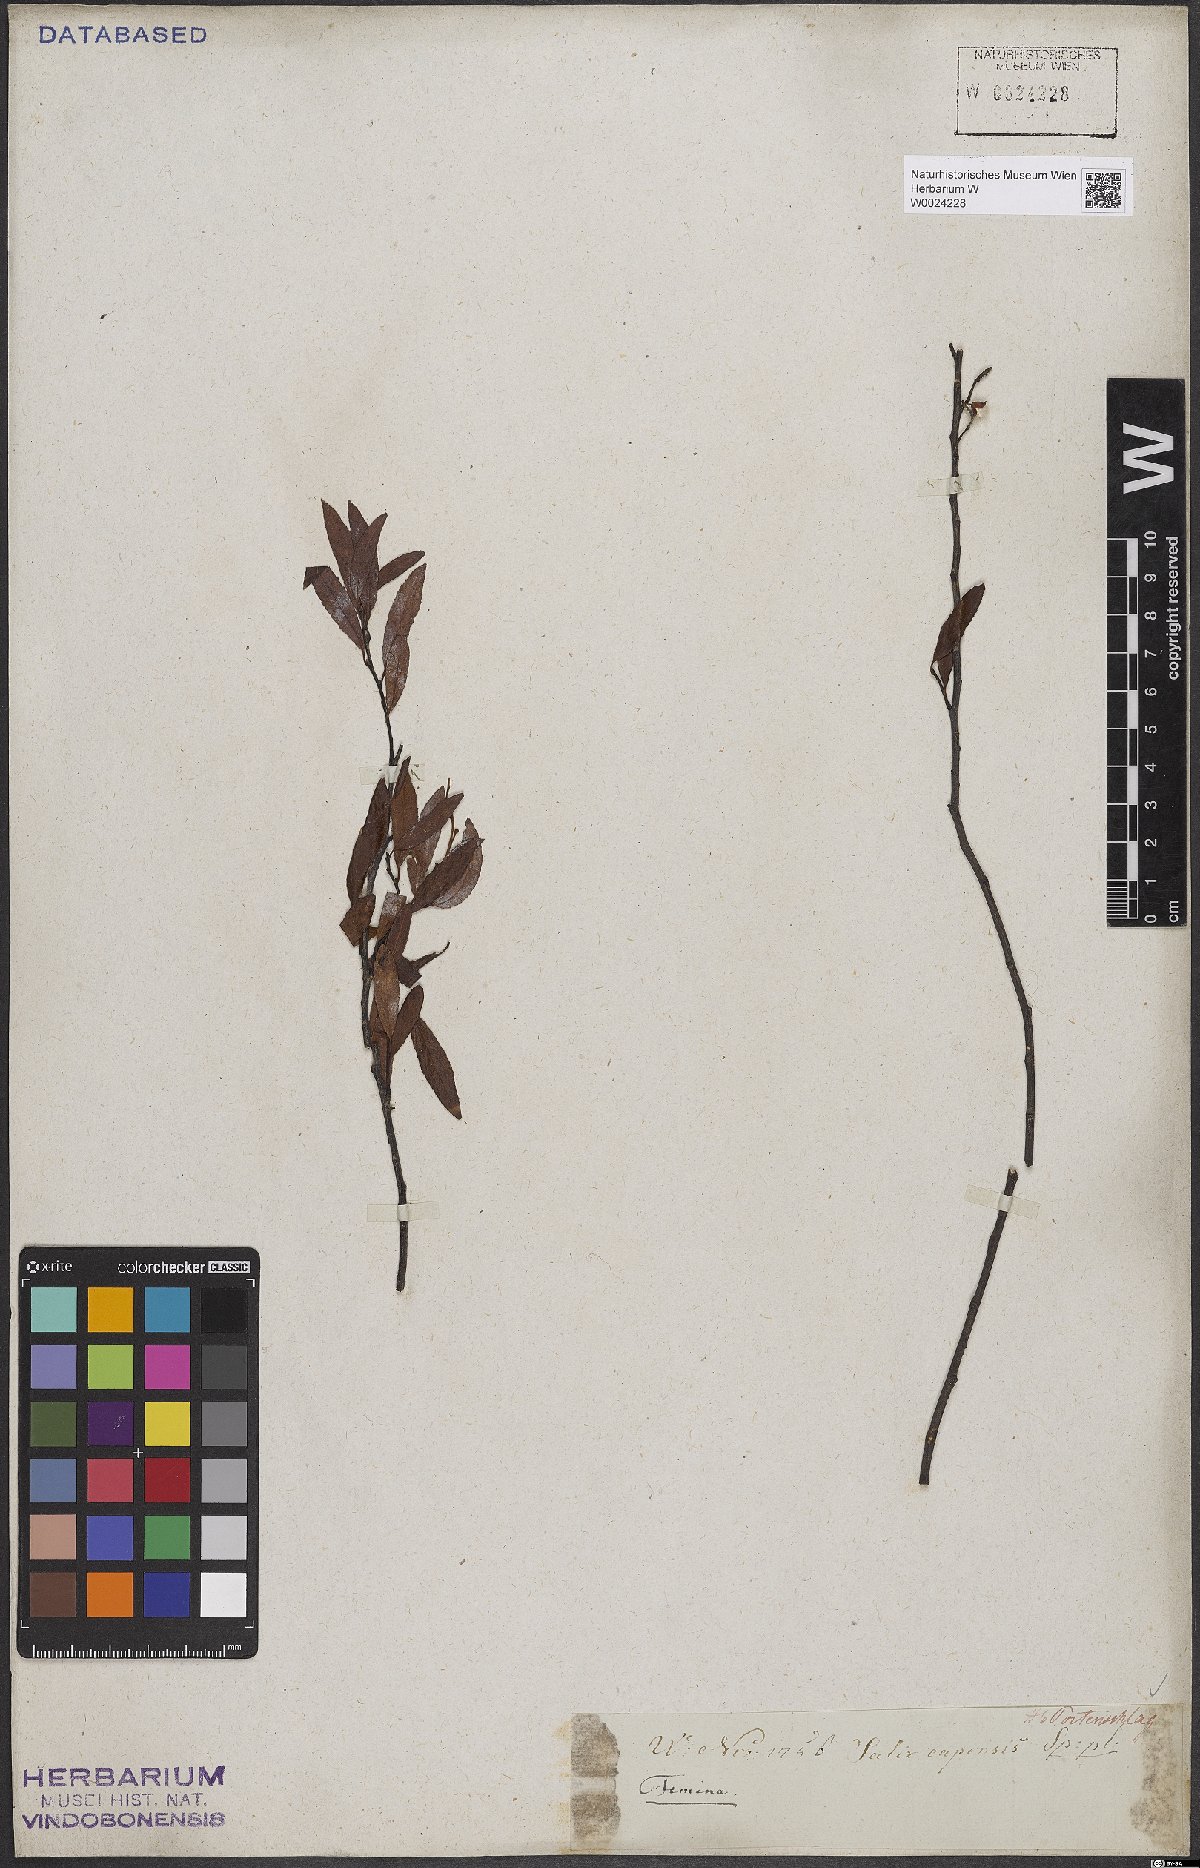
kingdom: Plantae
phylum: Tracheophyta
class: Magnoliopsida
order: Malpighiales
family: Salicaceae
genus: Salix
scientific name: Salix mucronata
